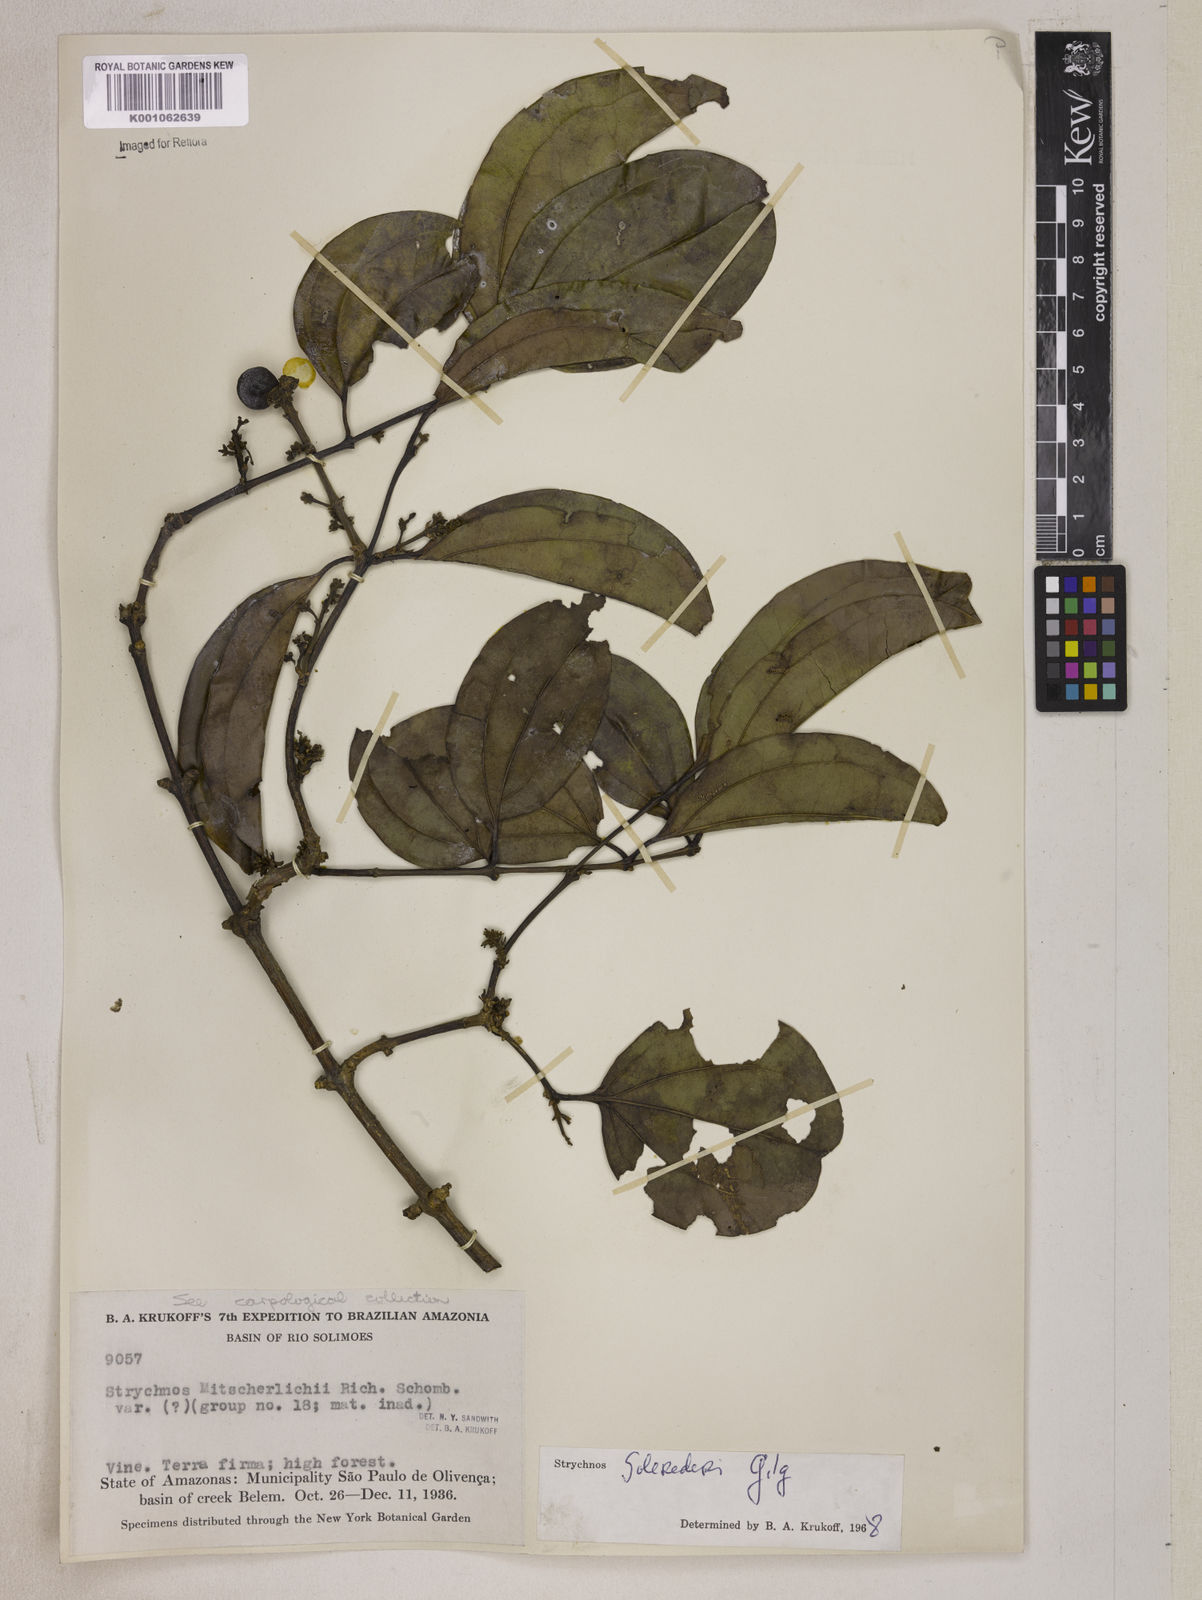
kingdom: Plantae
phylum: Tracheophyta
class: Magnoliopsida
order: Gentianales
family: Loganiaceae
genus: Strychnos
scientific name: Strychnos solerederi
